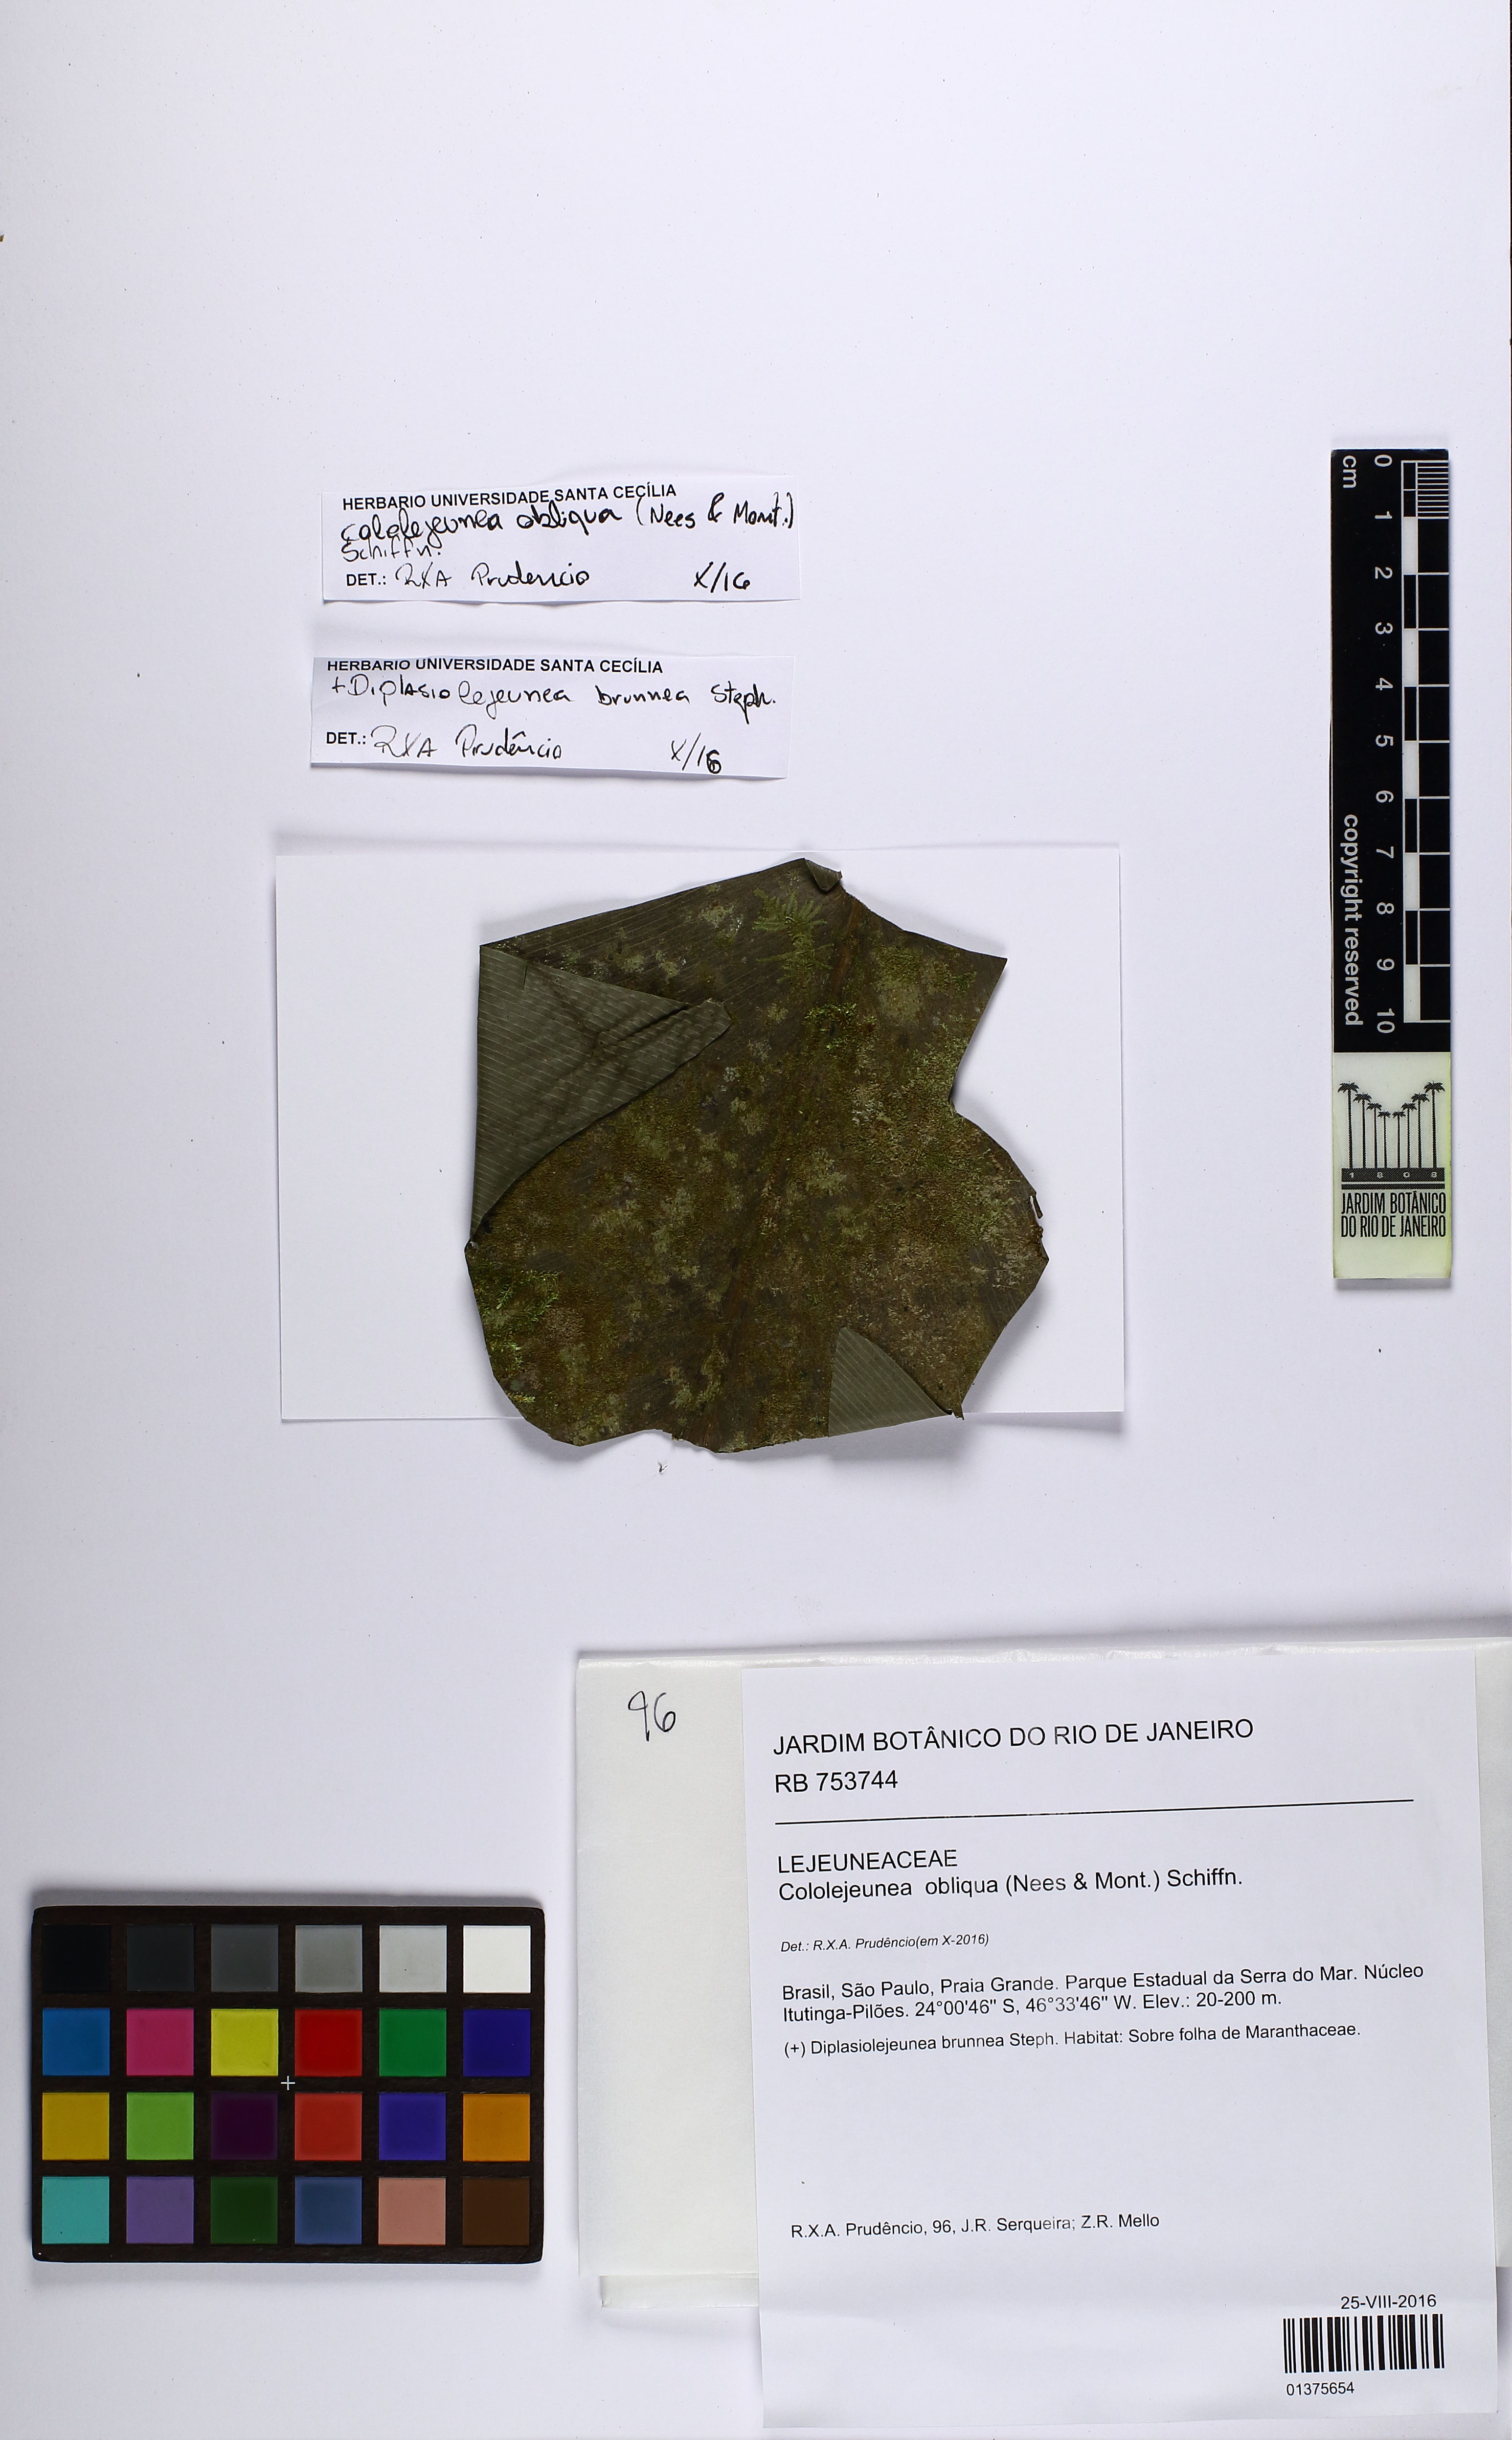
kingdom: Plantae
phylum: Marchantiophyta
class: Jungermanniopsida
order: Porellales
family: Lejeuneaceae
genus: Cololejeunea
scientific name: Cololejeunea obliqua
